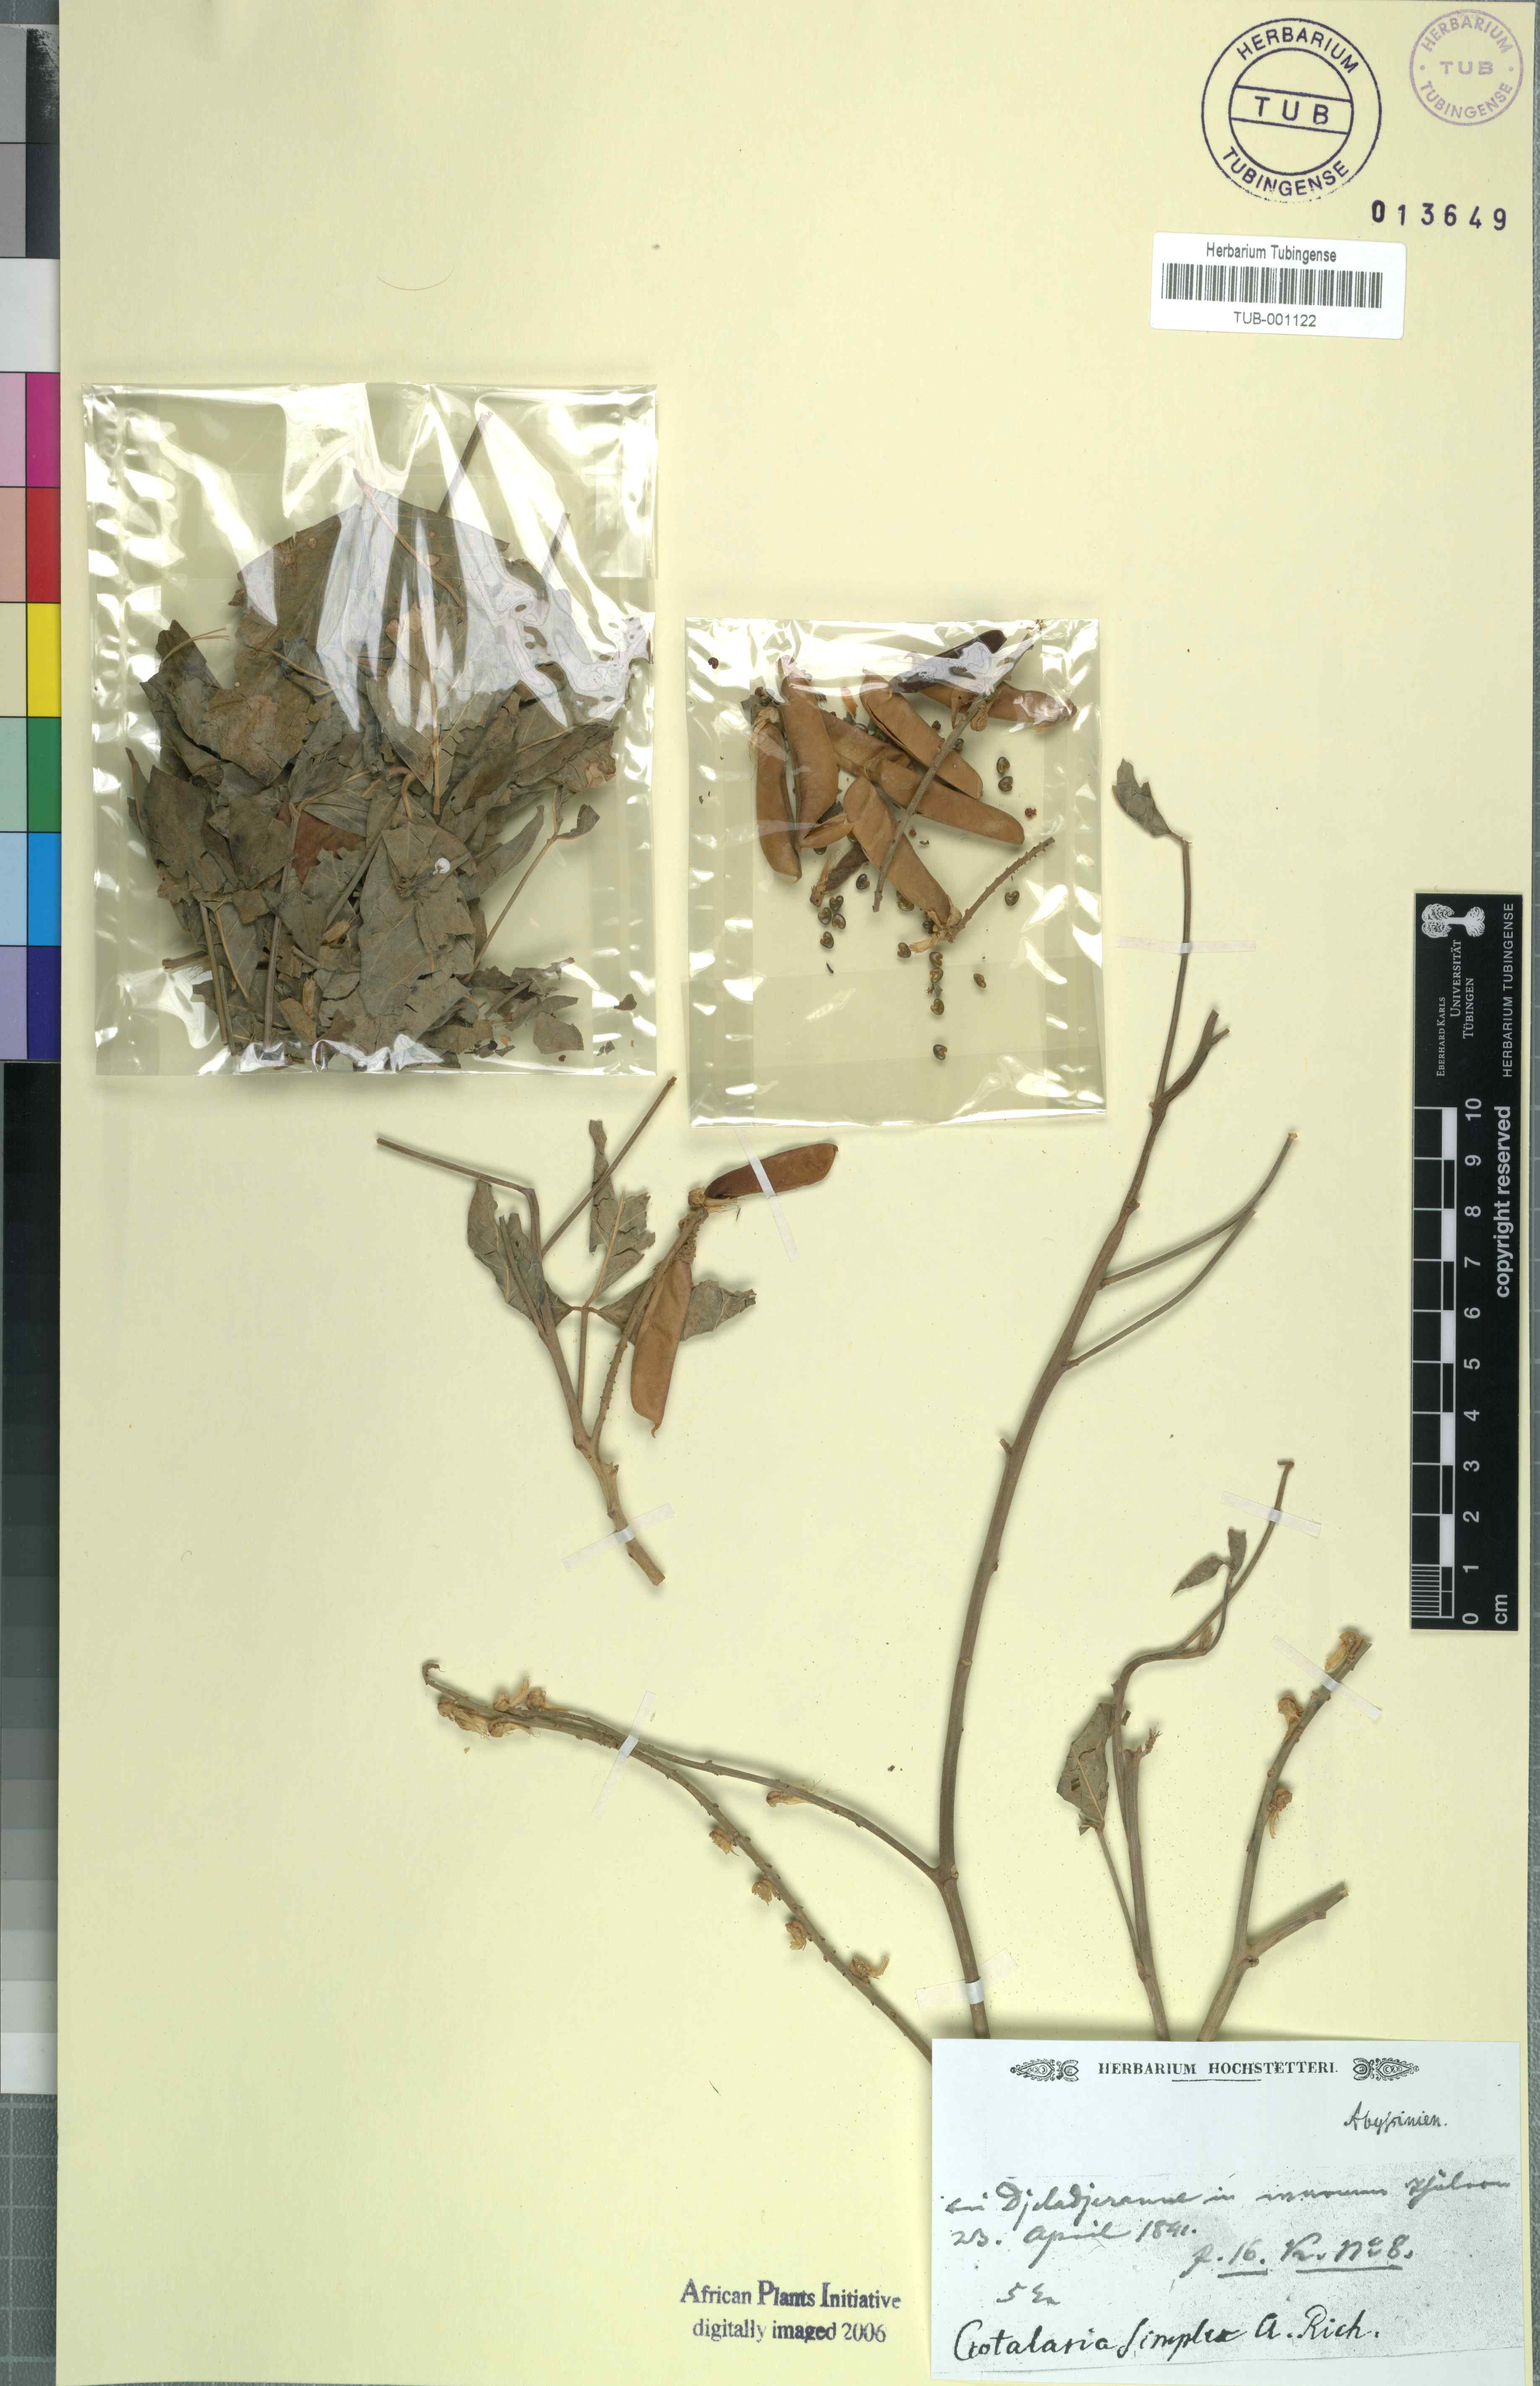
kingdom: Plantae
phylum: Tracheophyta
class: Magnoliopsida
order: Fabales
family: Fabaceae
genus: Crotalaria
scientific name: Crotalaria recta
